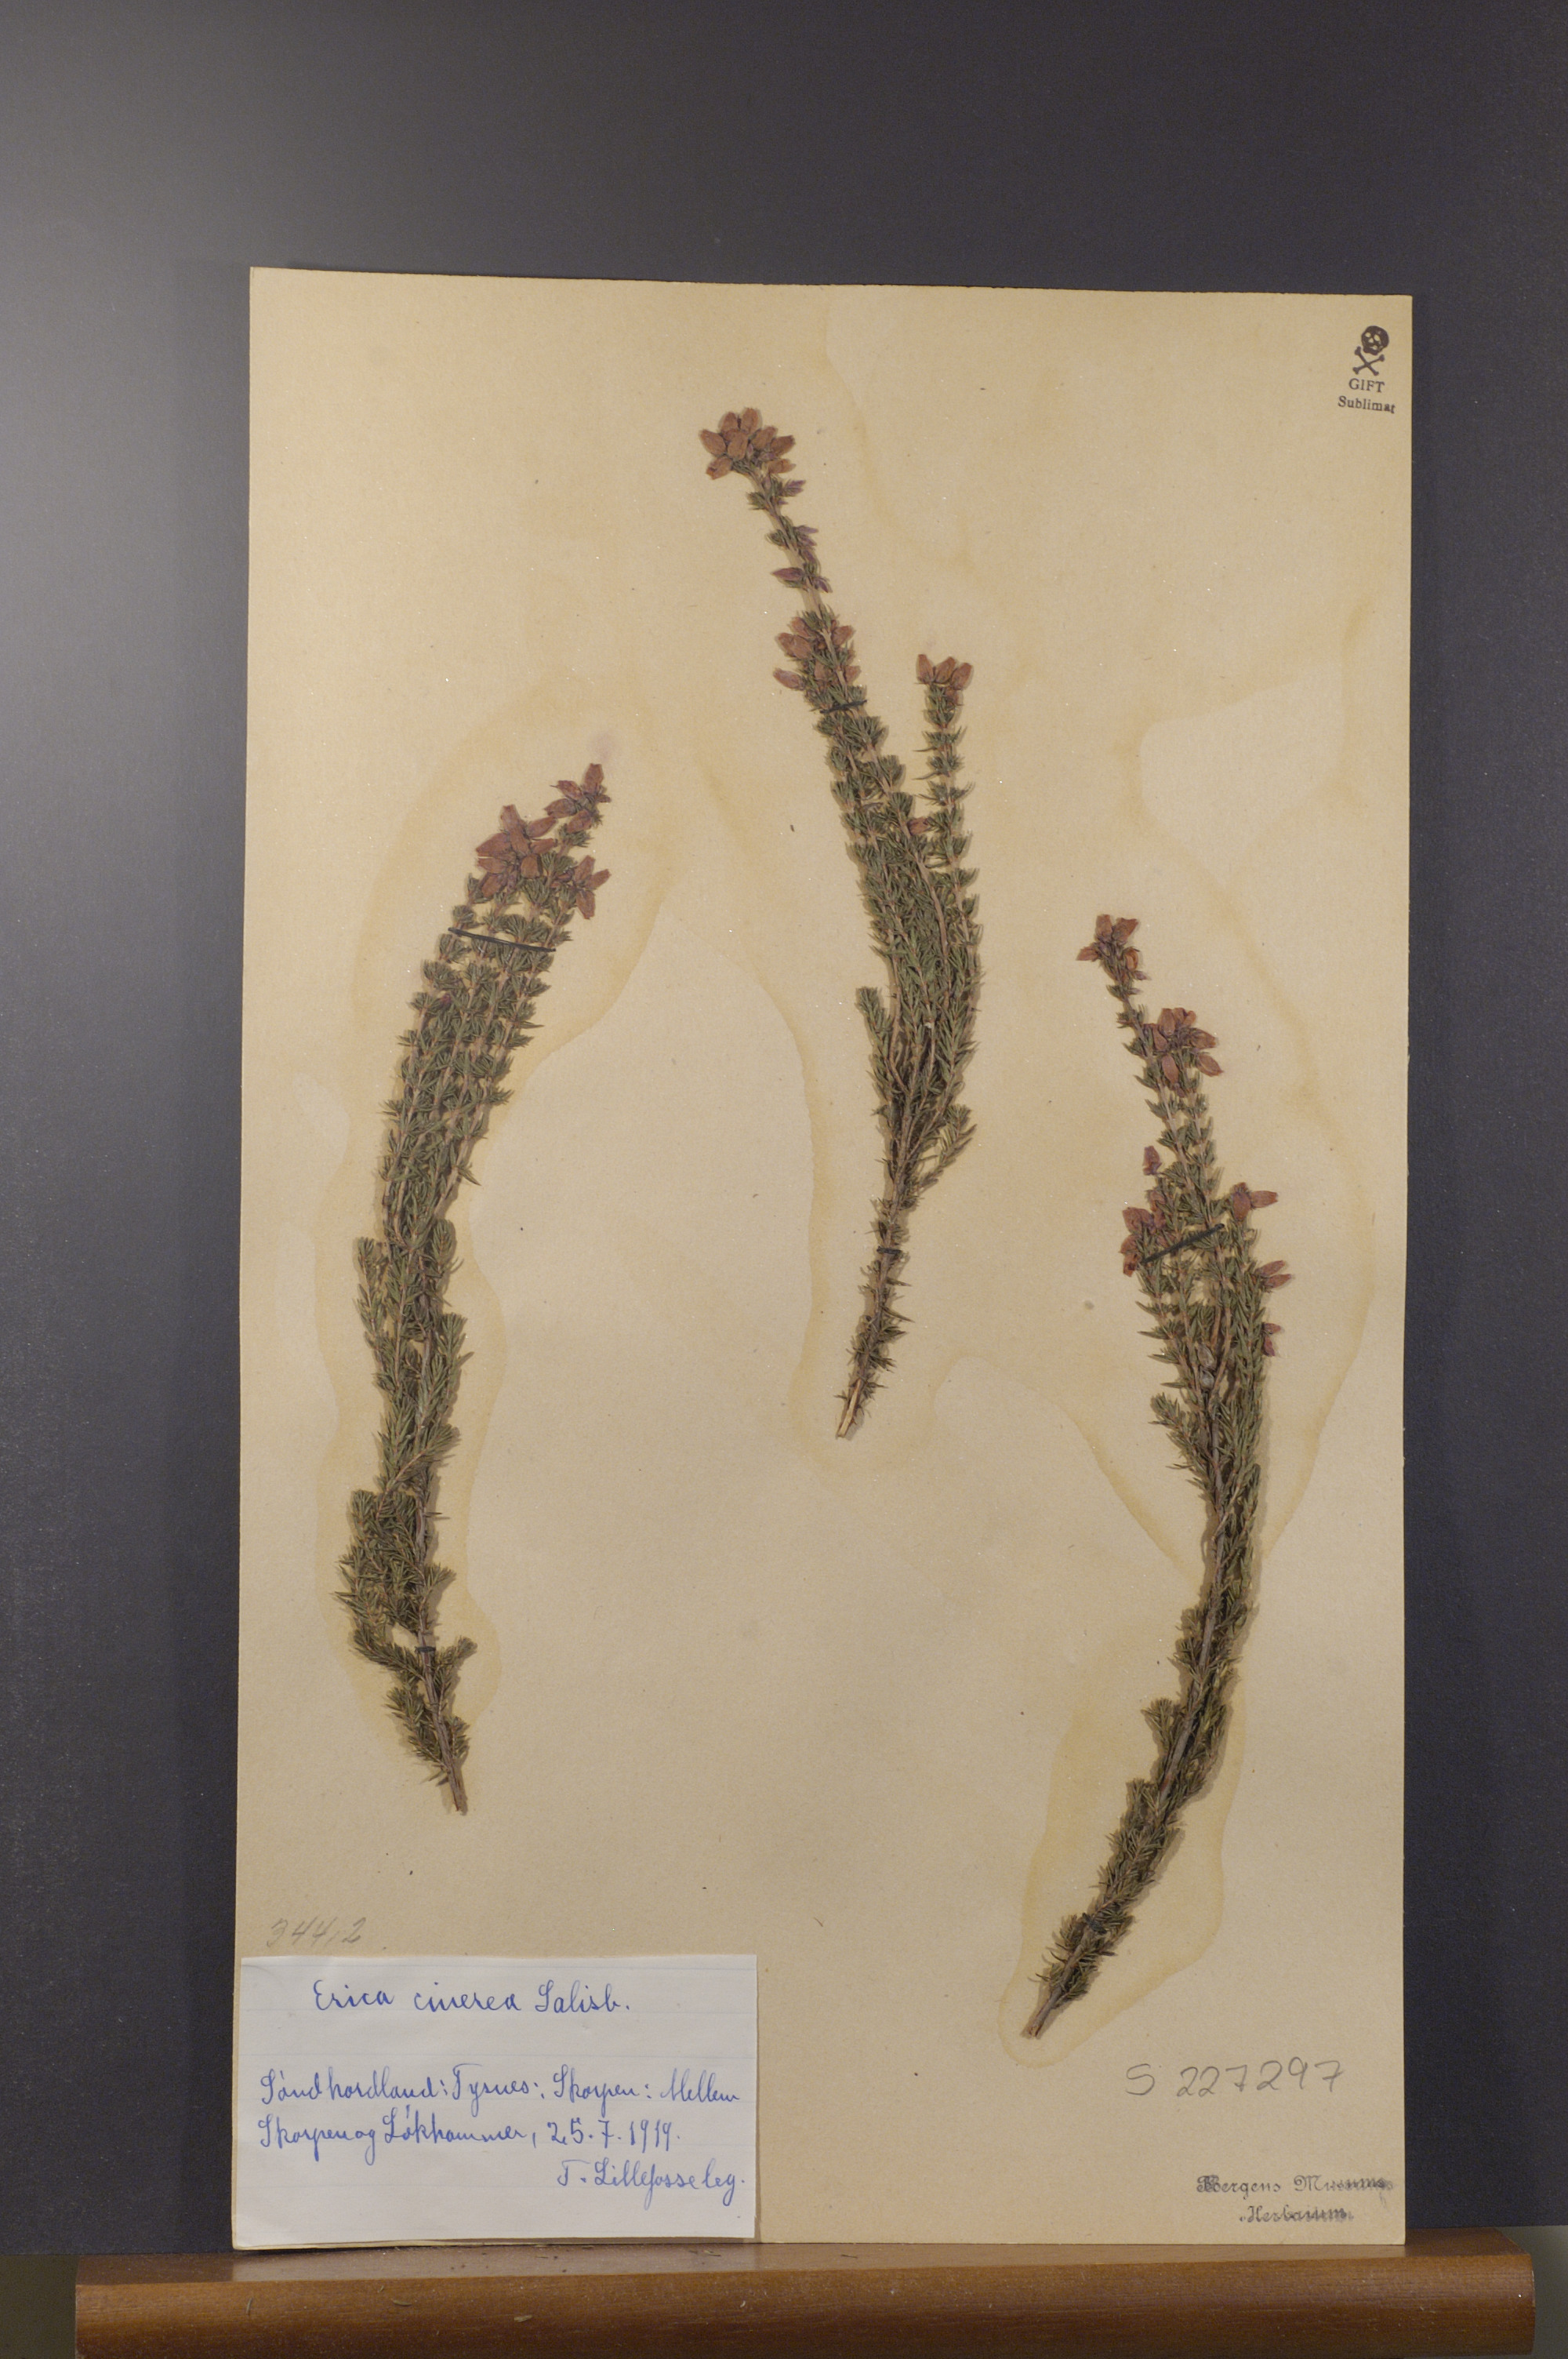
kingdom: Plantae
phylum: Tracheophyta
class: Magnoliopsida
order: Ericales
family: Ericaceae
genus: Erica
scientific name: Erica cinerea
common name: Bell heather
